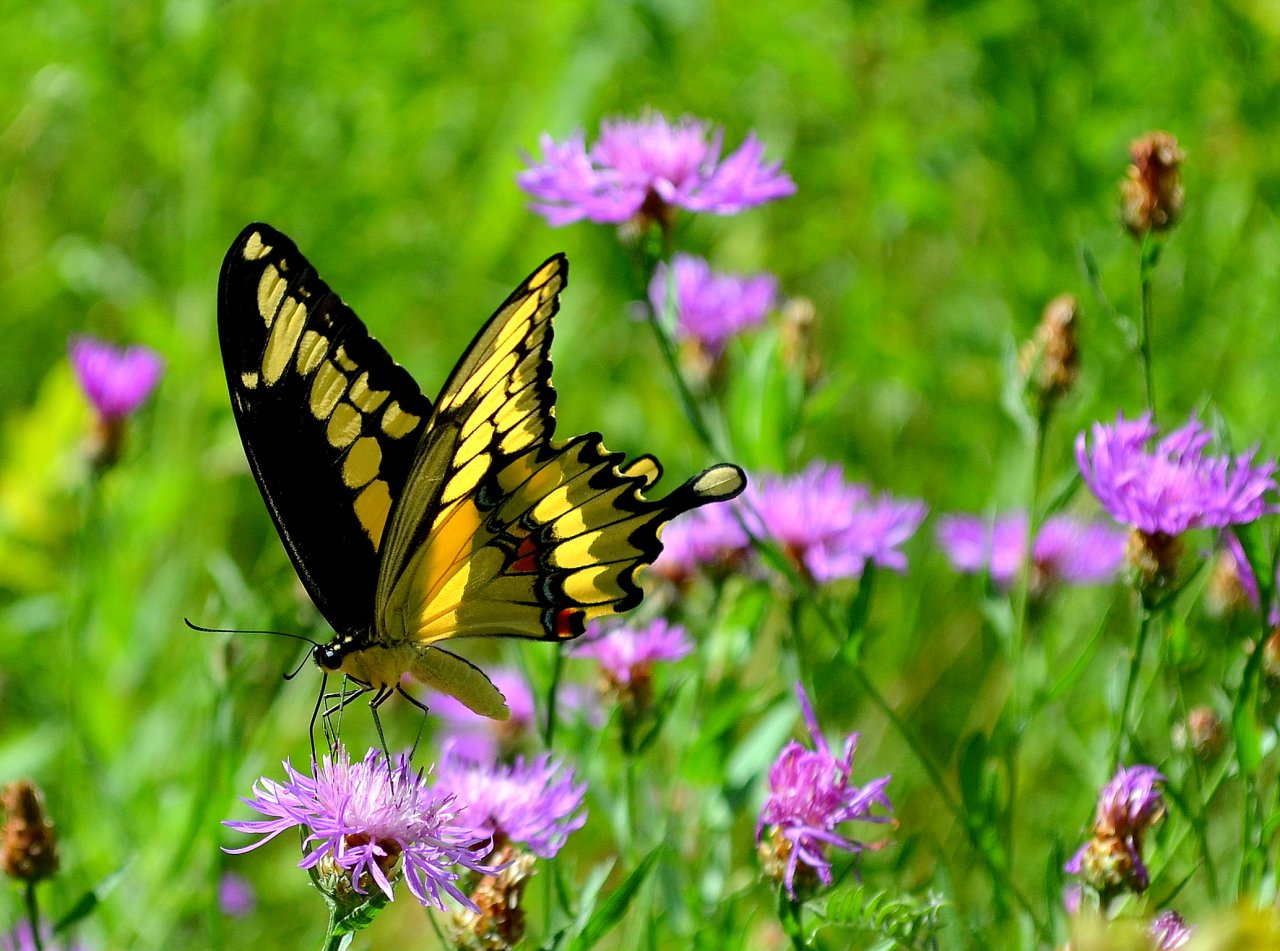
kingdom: Animalia
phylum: Arthropoda
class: Insecta
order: Lepidoptera
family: Papilionidae
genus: Papilio
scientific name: Papilio cresphontes
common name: Eastern Giant Swallowtail
